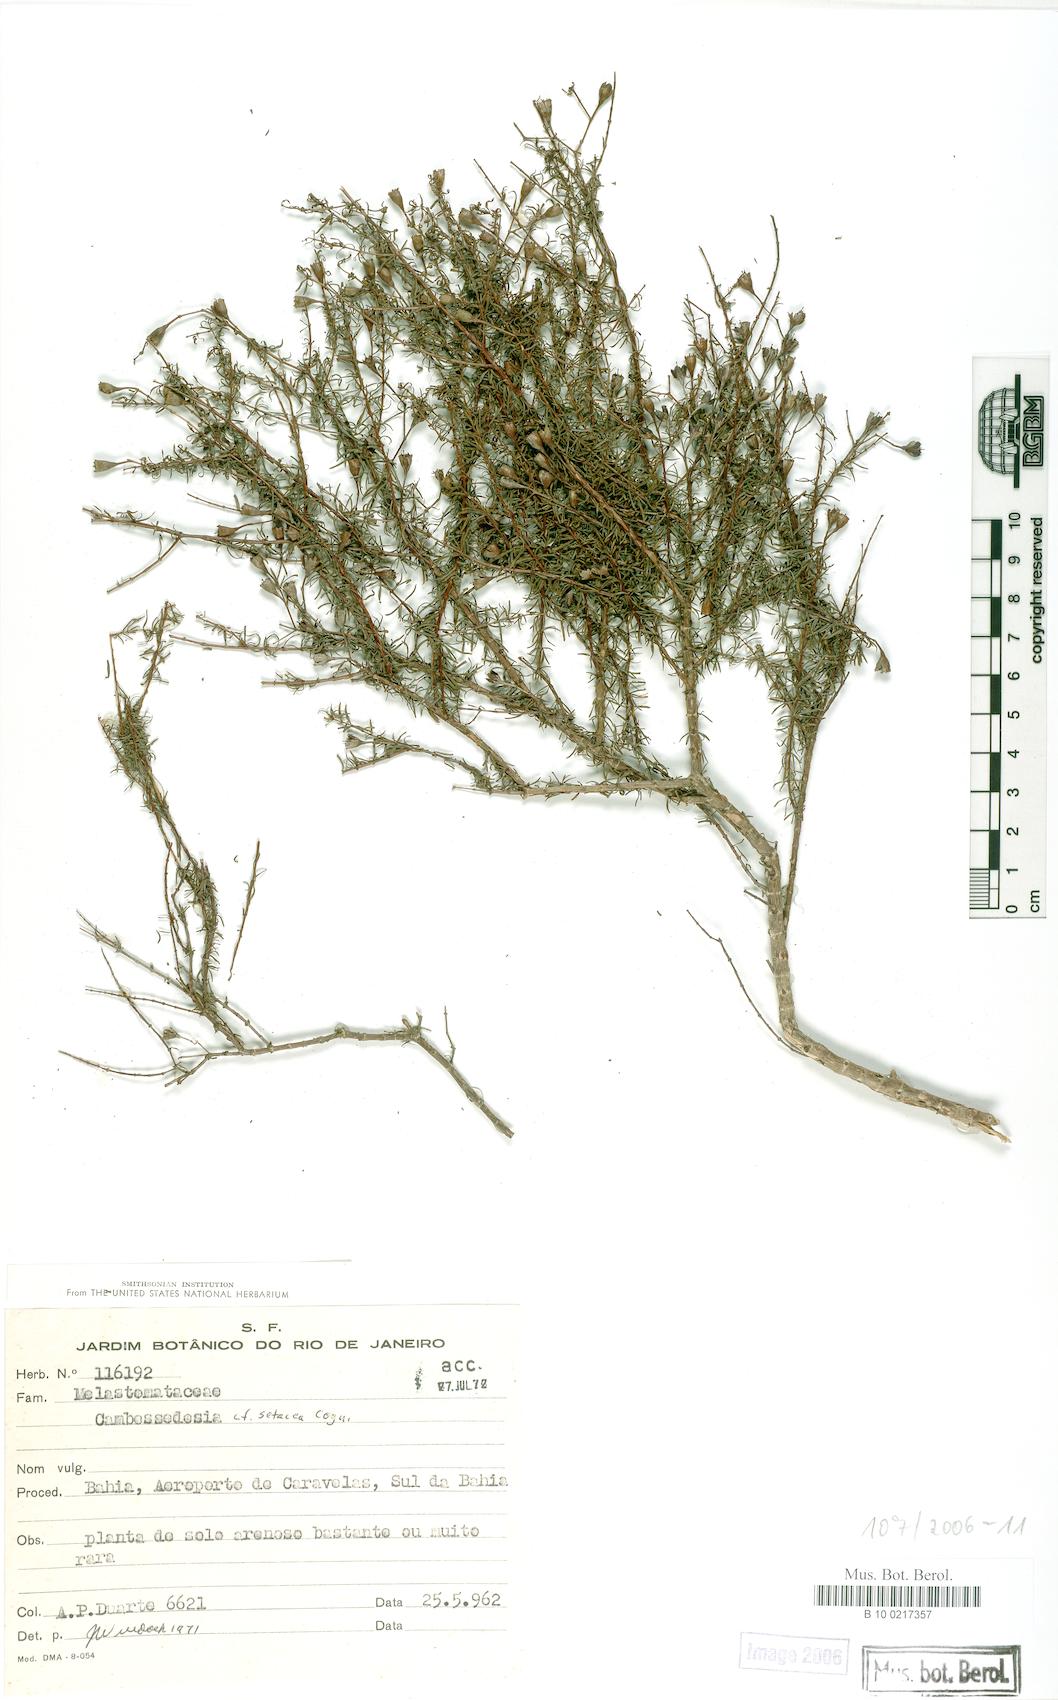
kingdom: Plantae
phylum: Tracheophyta
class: Magnoliopsida
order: Myrtales
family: Melastomataceae
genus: Cambessedesia
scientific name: Cambessedesia hilariana
